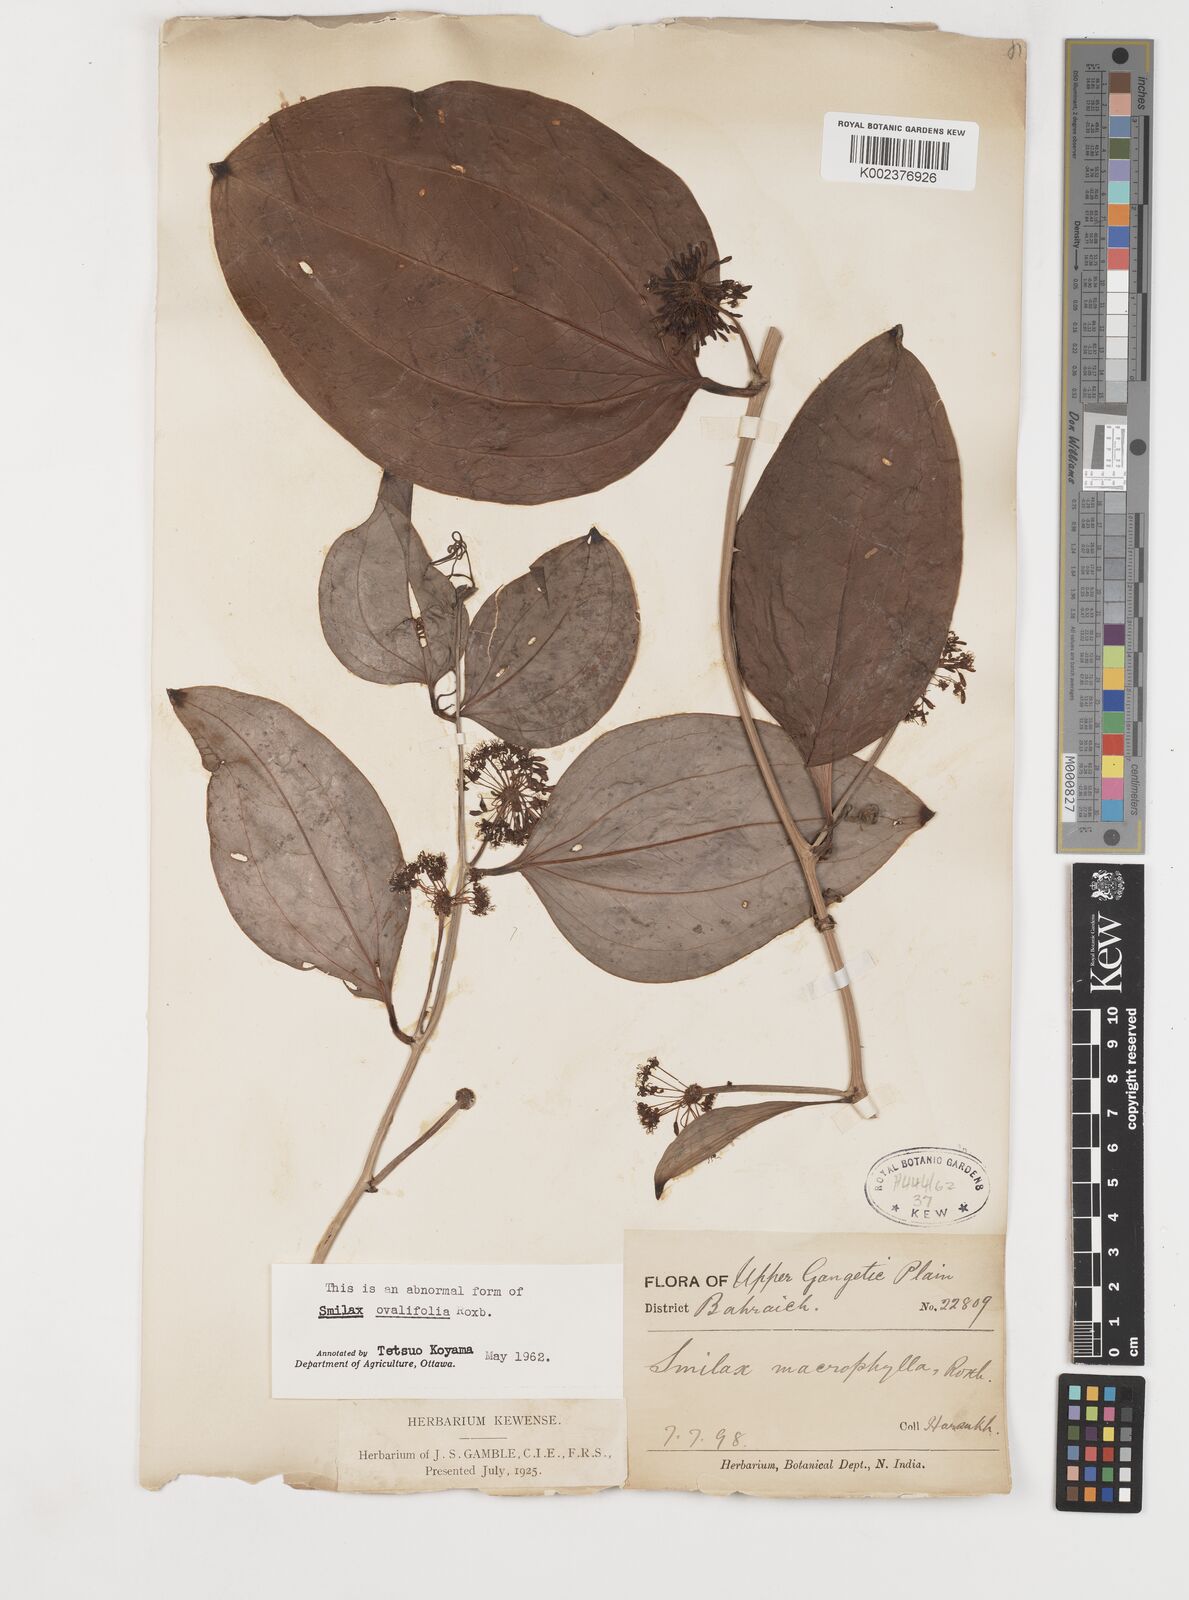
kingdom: Plantae
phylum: Tracheophyta
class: Liliopsida
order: Liliales
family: Smilacaceae
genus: Smilax
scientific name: Smilax ovalifolia
